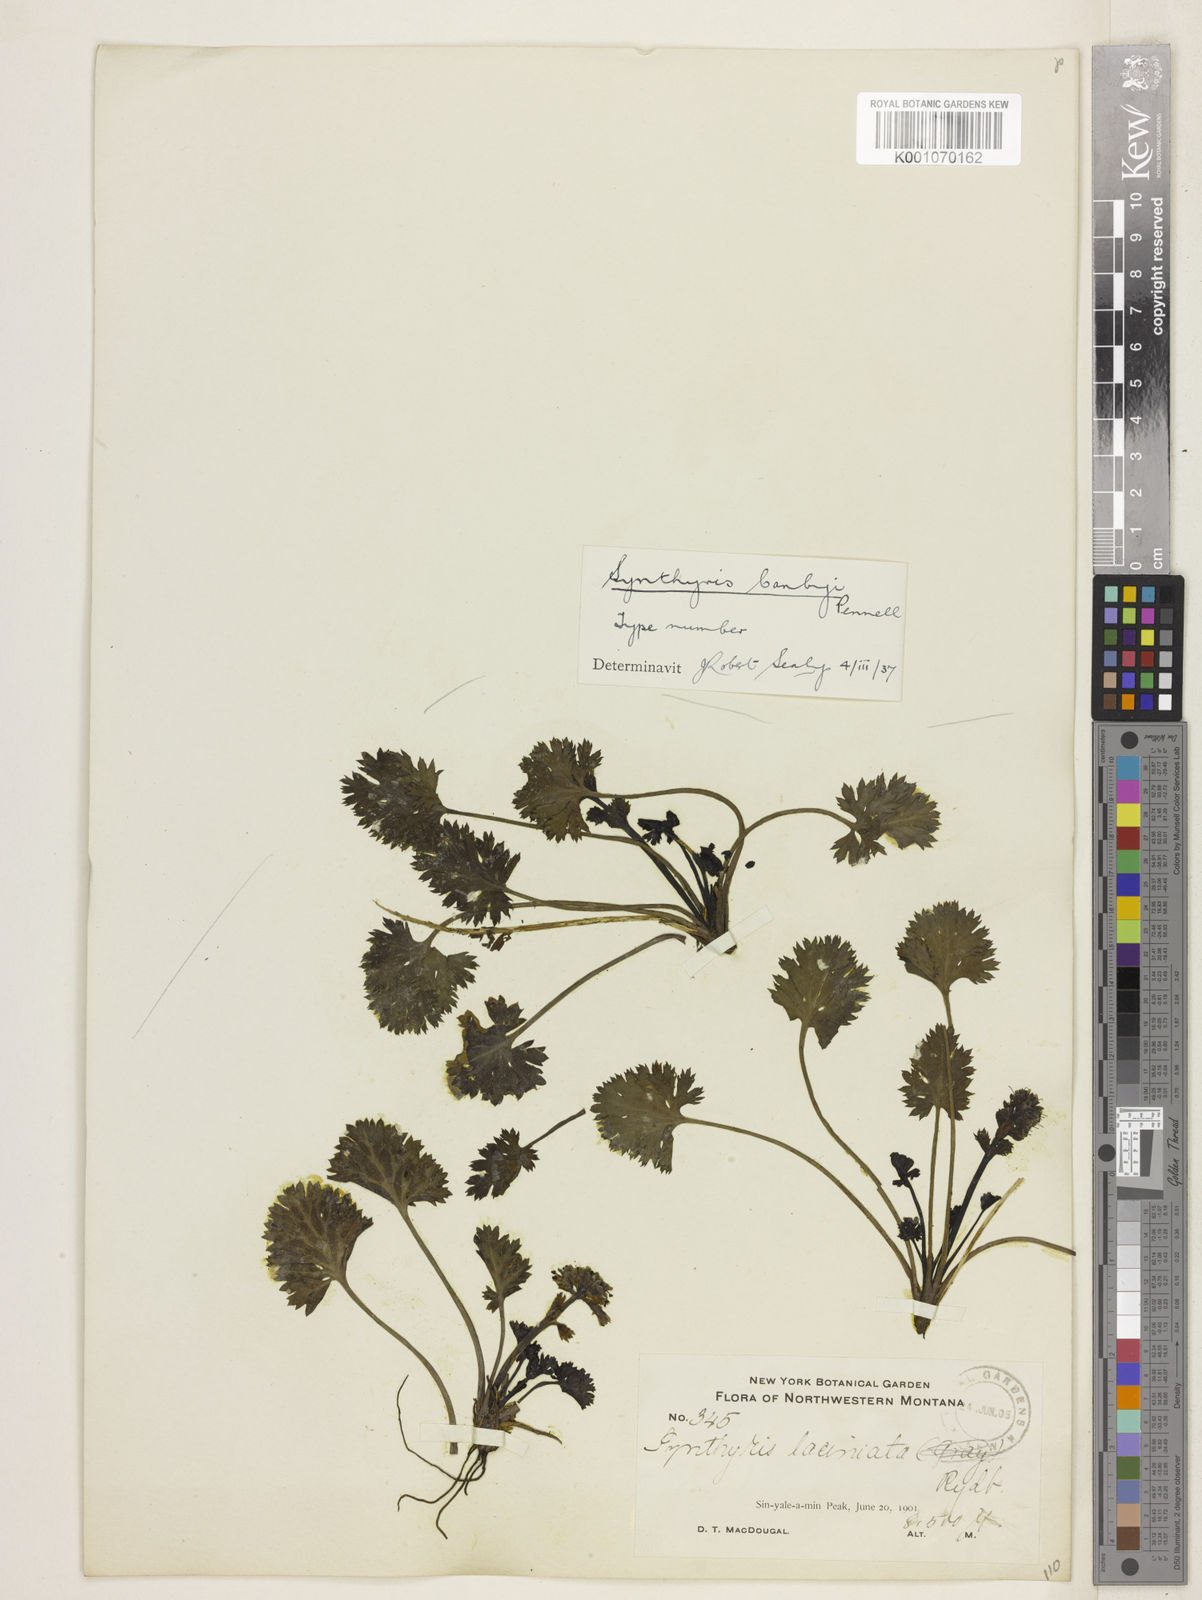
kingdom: Plantae
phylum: Tracheophyta
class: Magnoliopsida
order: Lamiales
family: Plantaginaceae
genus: Synthyris
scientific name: Synthyris ranunculina
